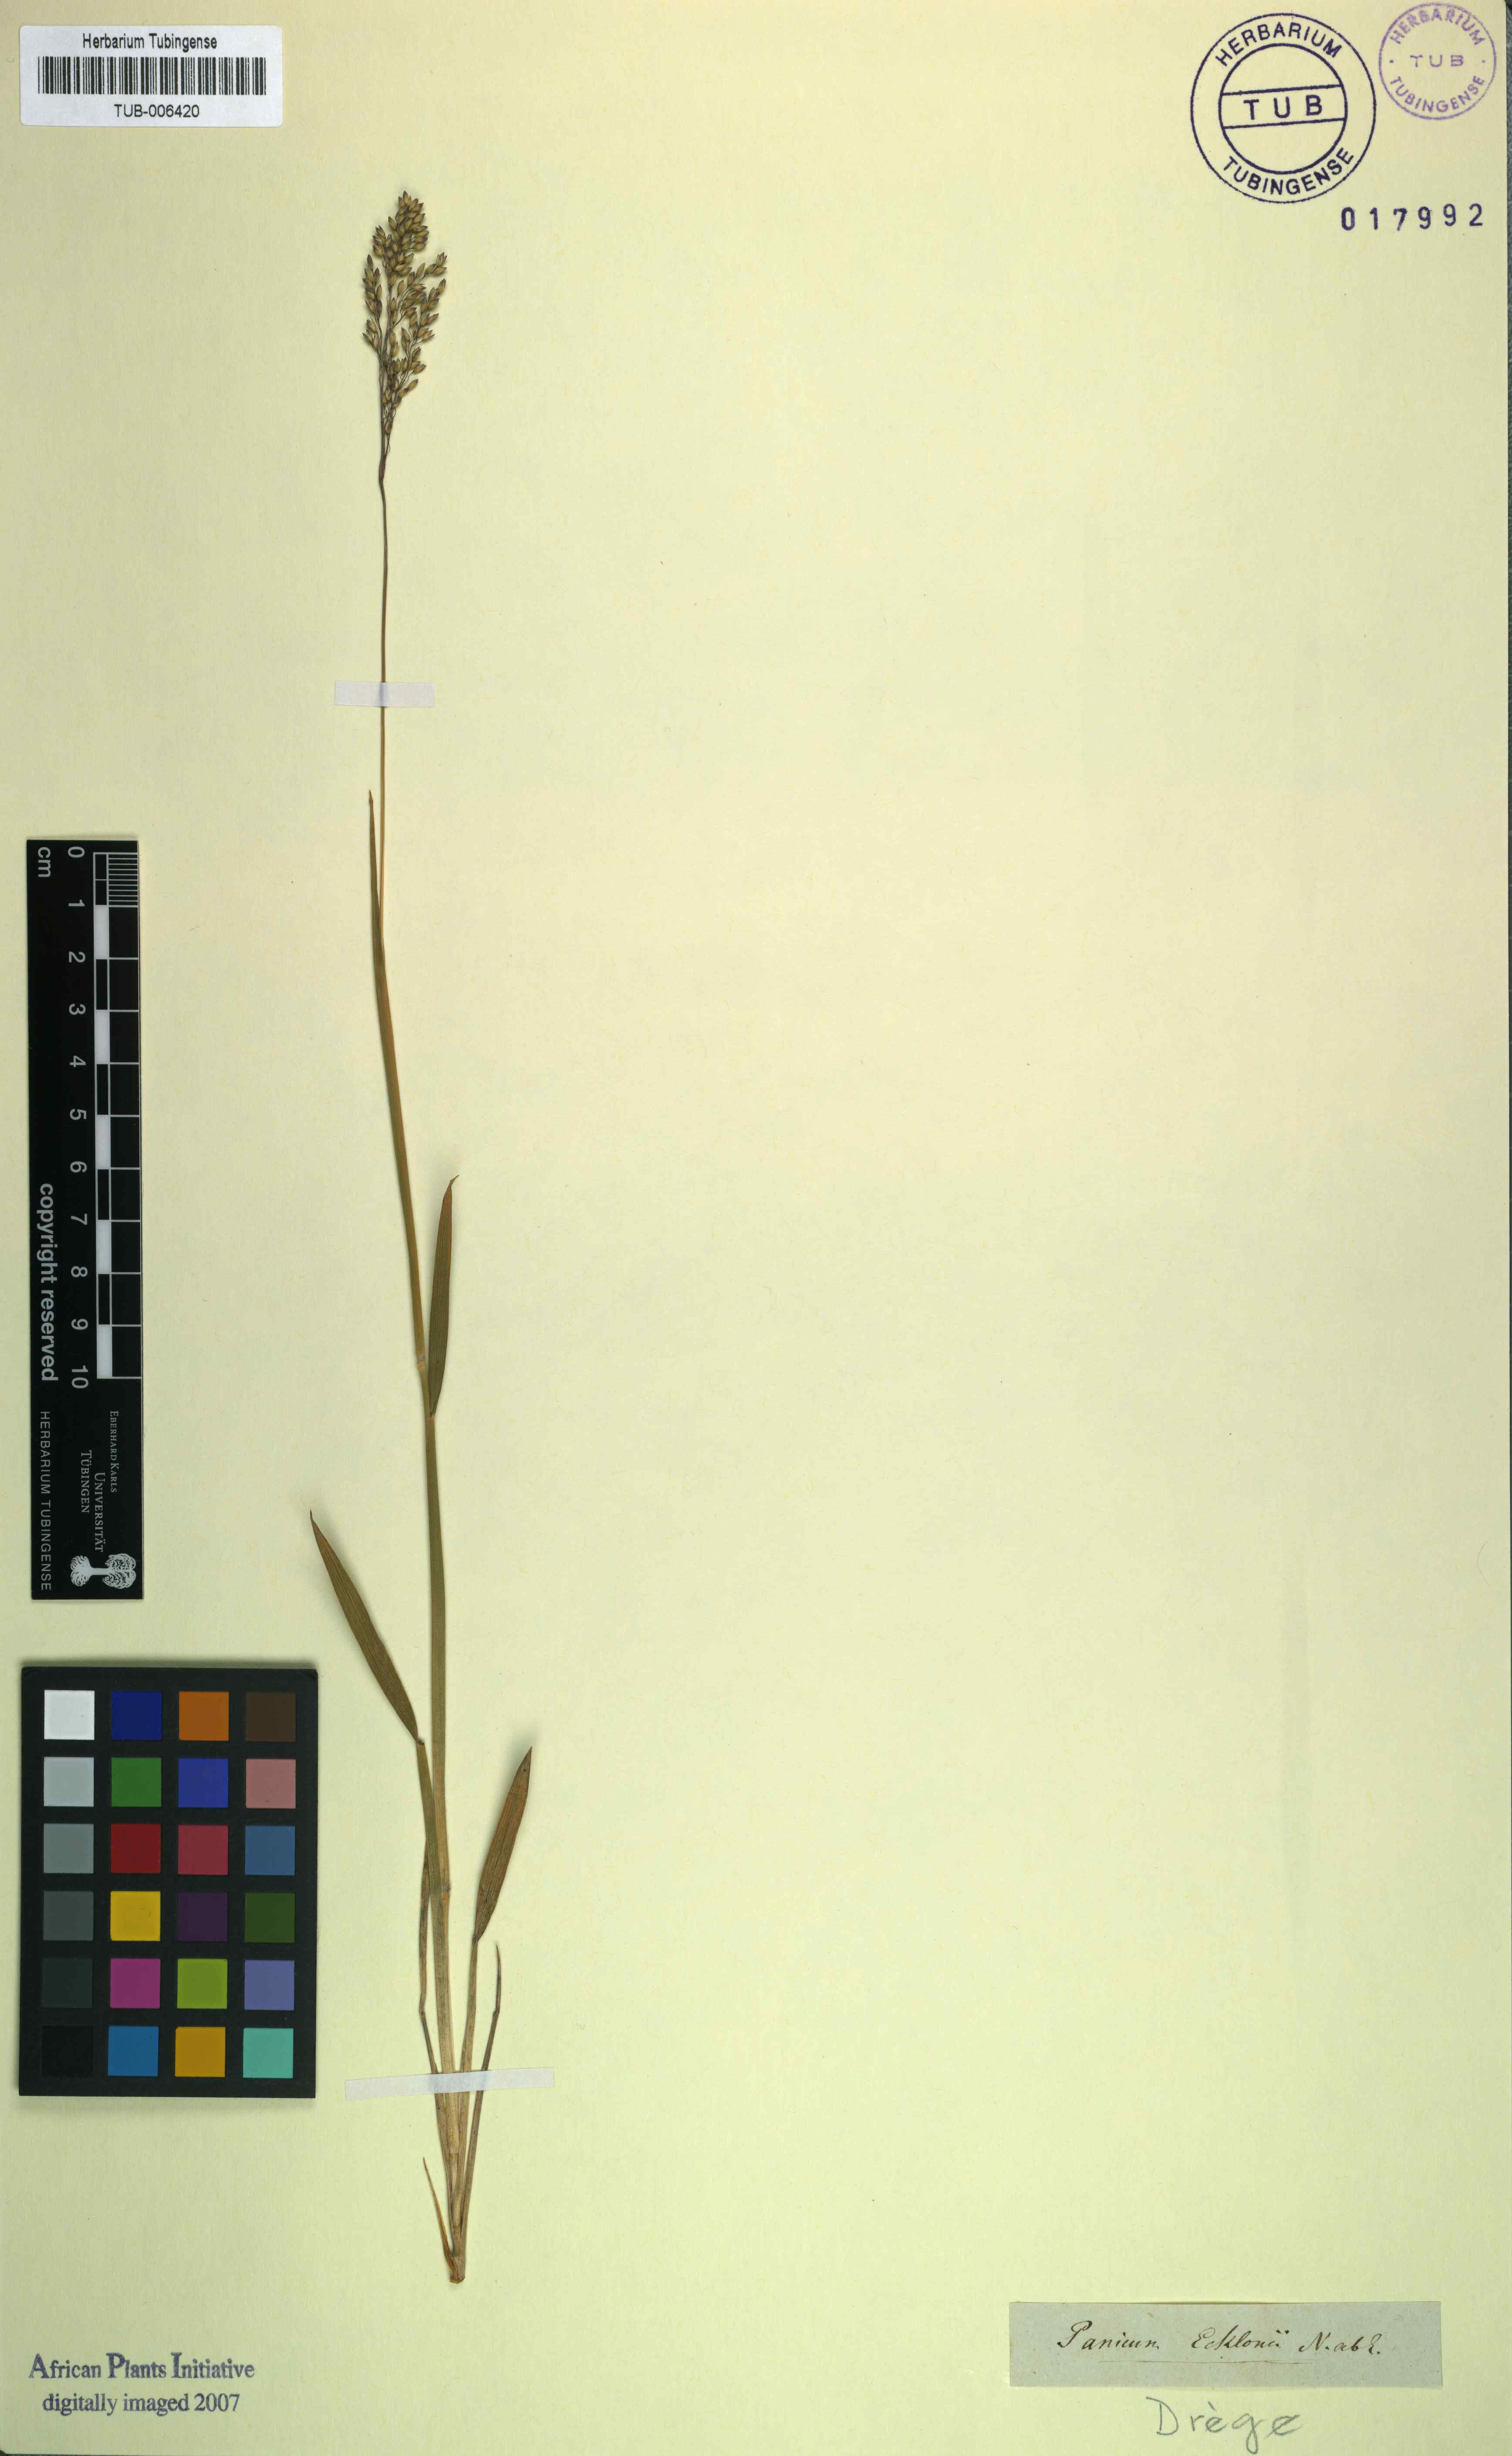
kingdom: Plantae
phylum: Tracheophyta
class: Liliopsida
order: Poales
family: Poaceae
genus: Adenochloa
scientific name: Adenochloa ecklonii
